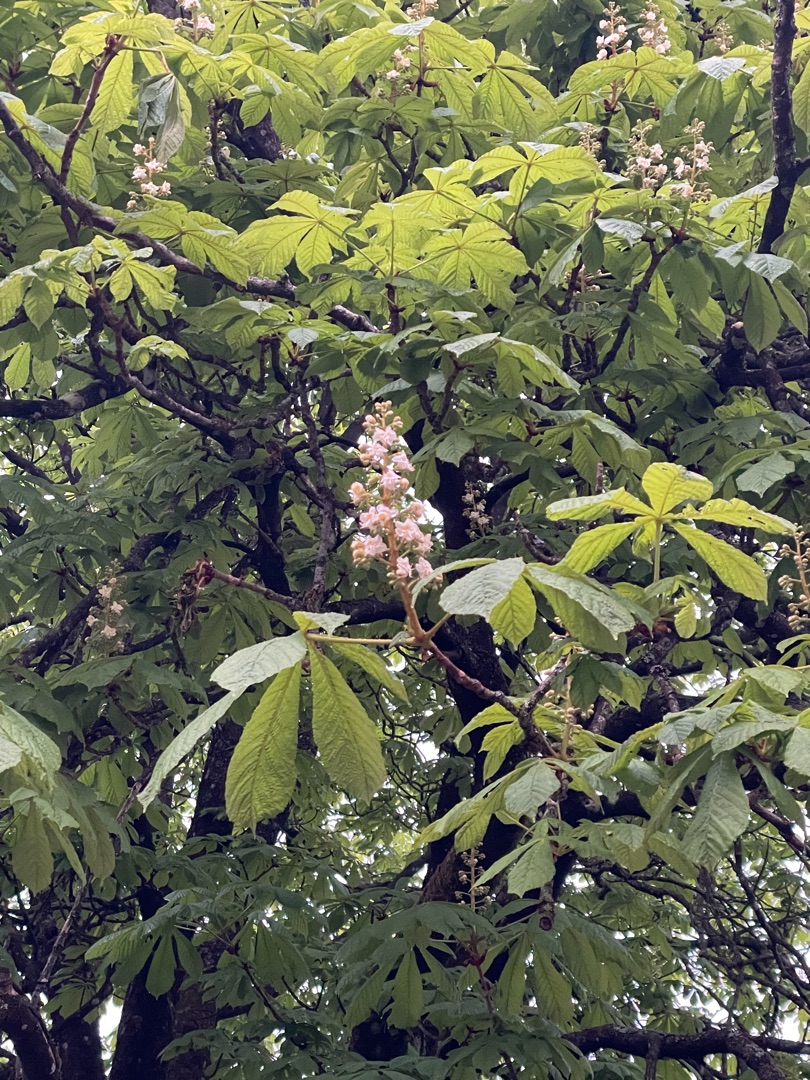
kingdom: Plantae
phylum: Tracheophyta
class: Magnoliopsida
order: Sapindales
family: Sapindaceae
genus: Aesculus
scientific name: Aesculus hippocastanum
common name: Hestekastanie
